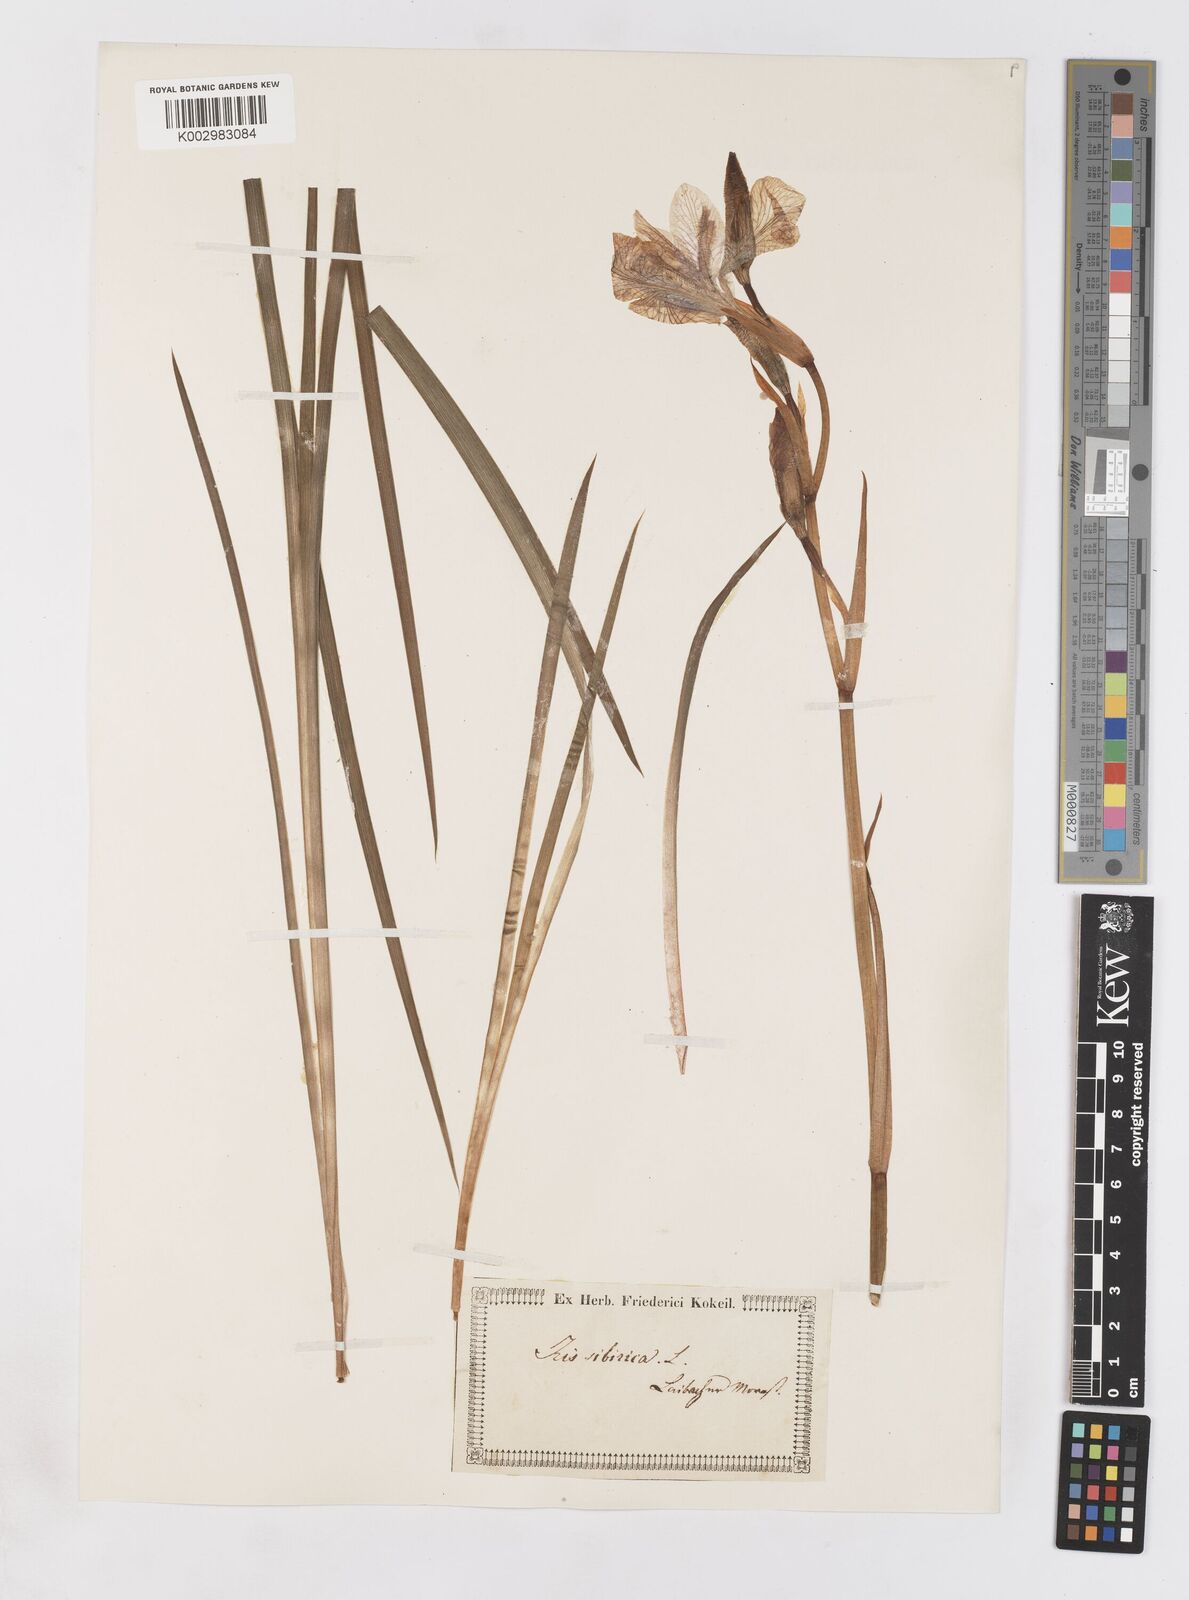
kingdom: Plantae
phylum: Tracheophyta
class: Liliopsida
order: Asparagales
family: Iridaceae
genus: Iris
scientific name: Iris sibirica
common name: Siberian iris
